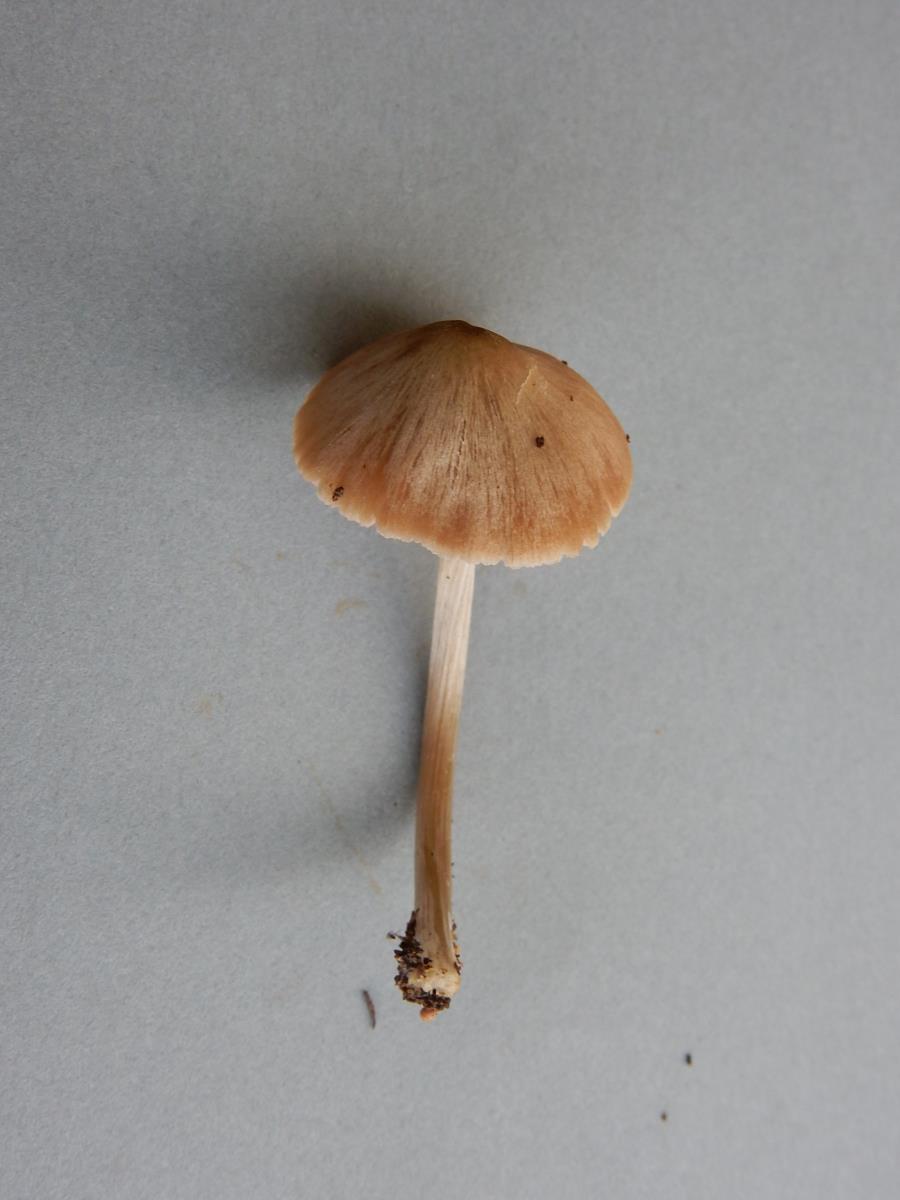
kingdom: Fungi
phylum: Basidiomycota
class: Agaricomycetes
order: Agaricales
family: Entolomataceae
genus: Entoloma
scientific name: Entoloma
